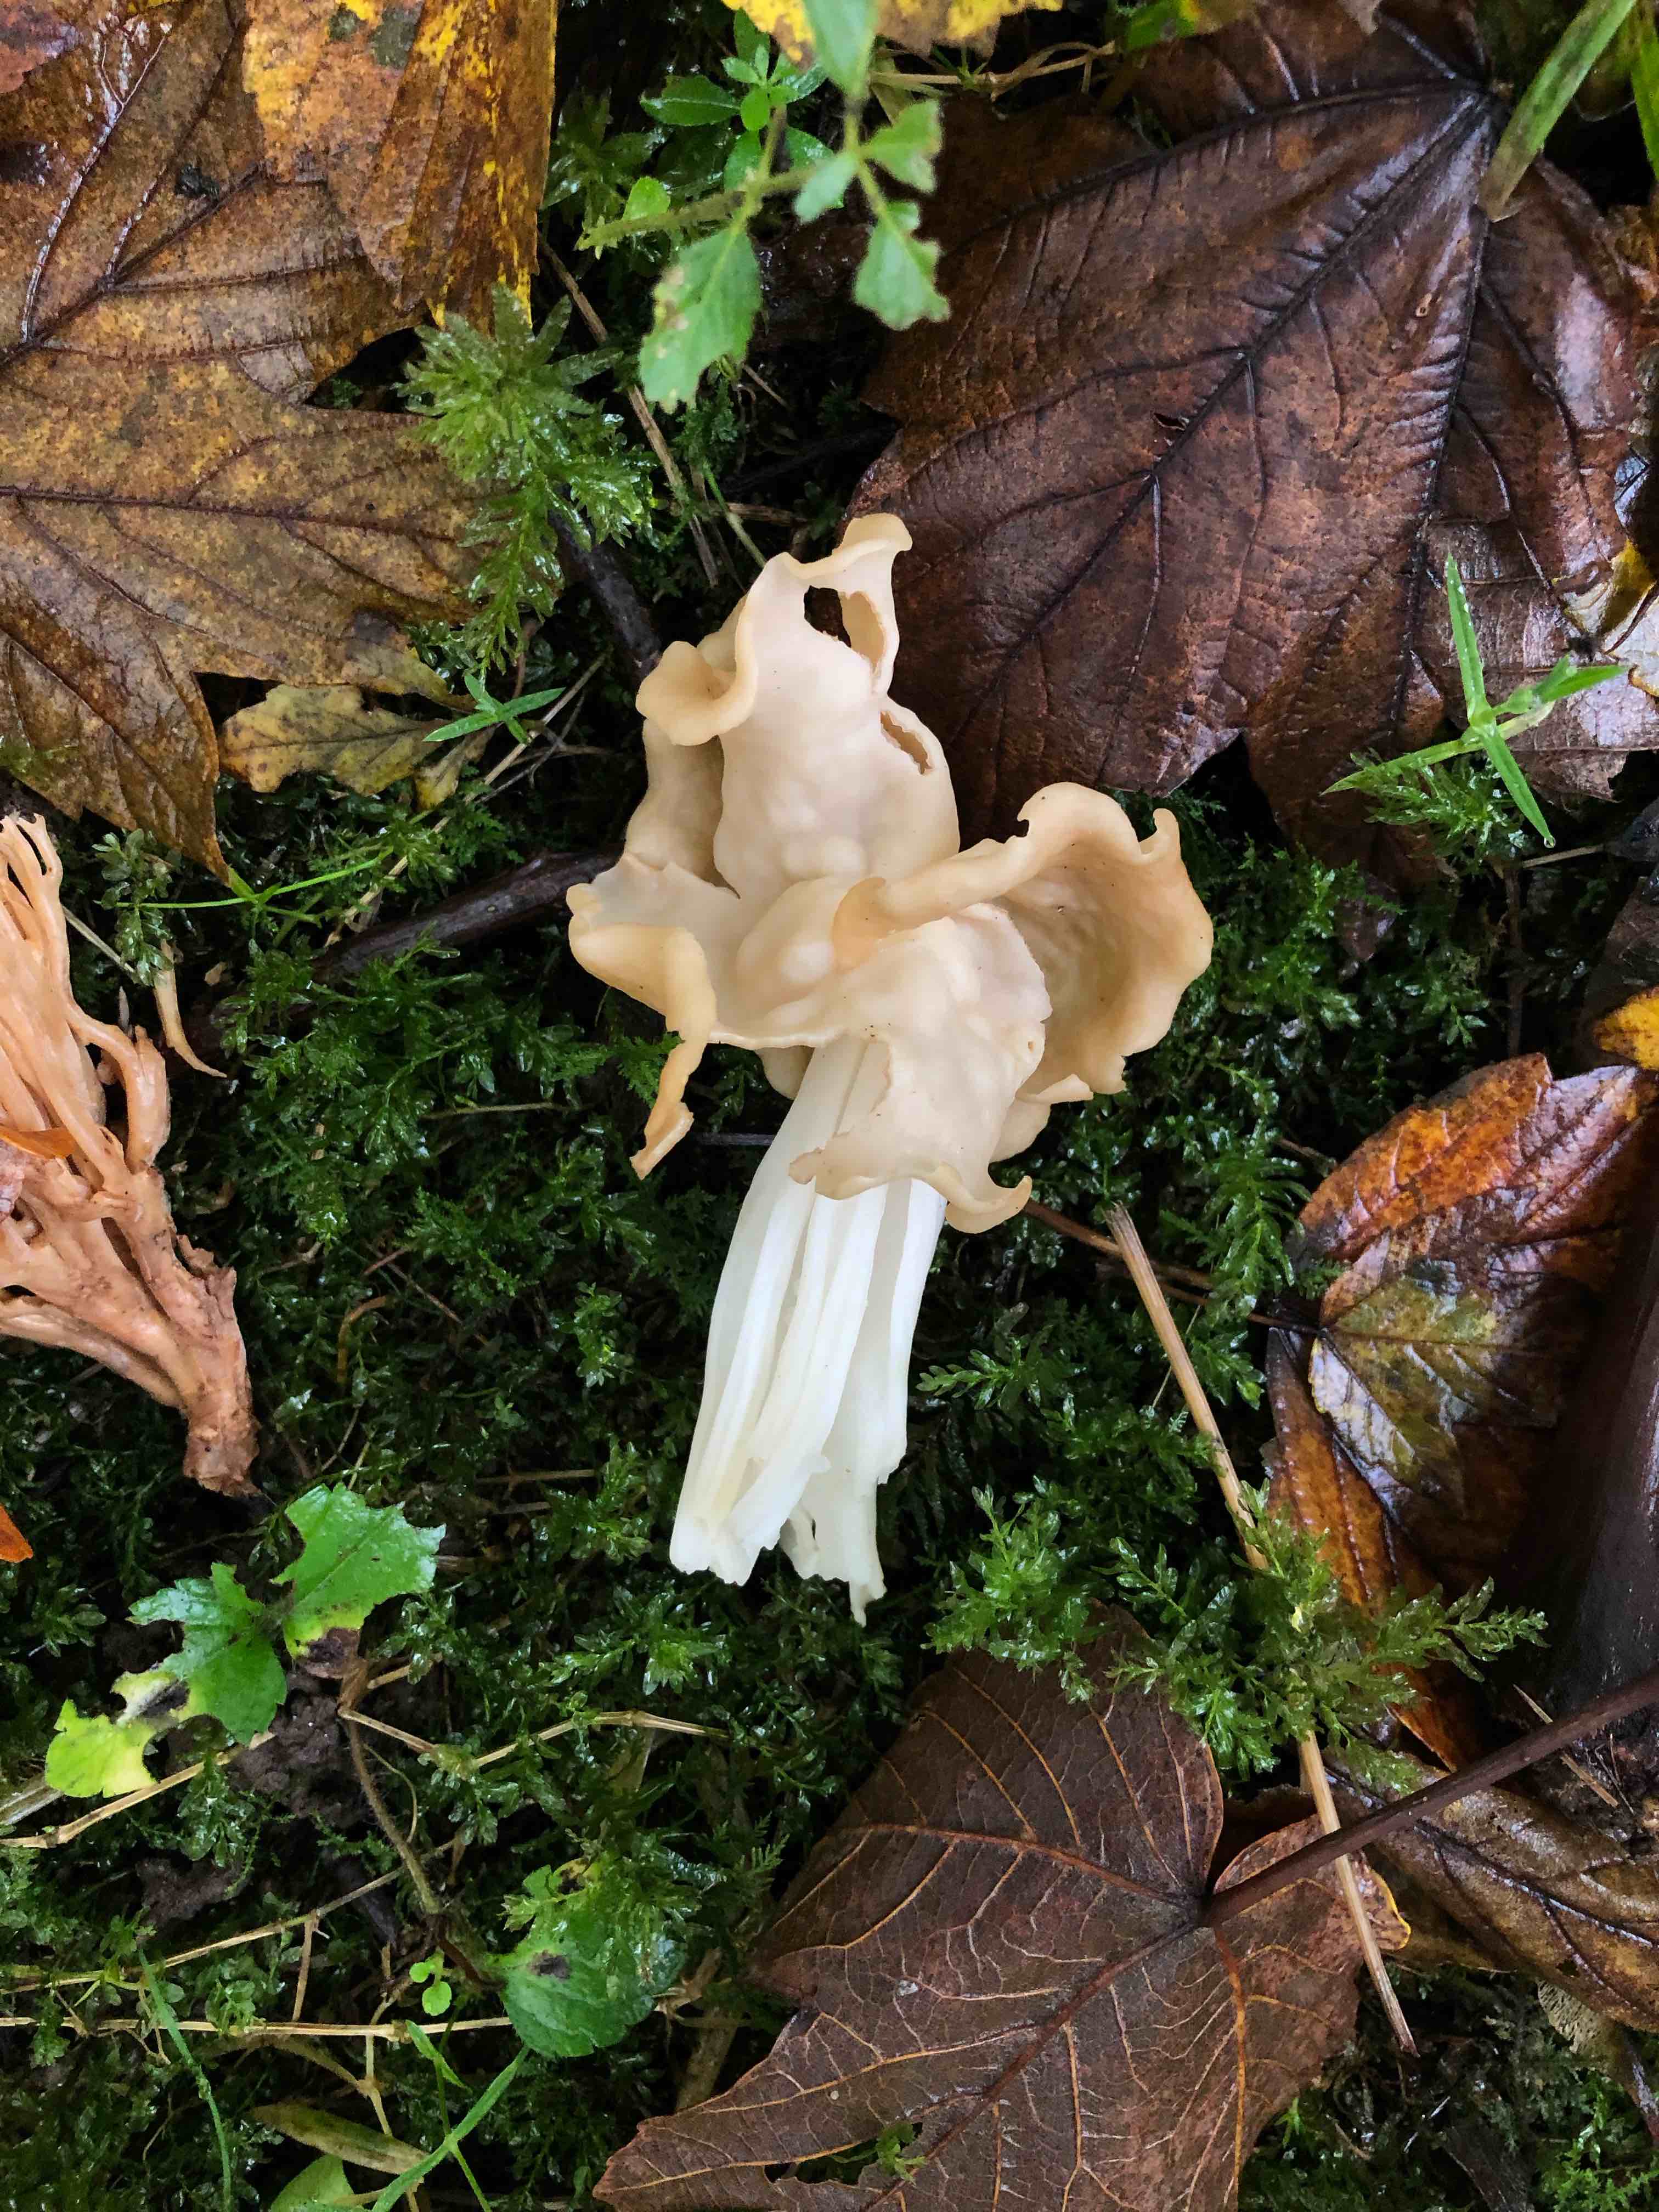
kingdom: Fungi
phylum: Ascomycota
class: Pezizomycetes
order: Pezizales
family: Helvellaceae
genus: Helvella
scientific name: Helvella crispa
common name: kruset foldhat
